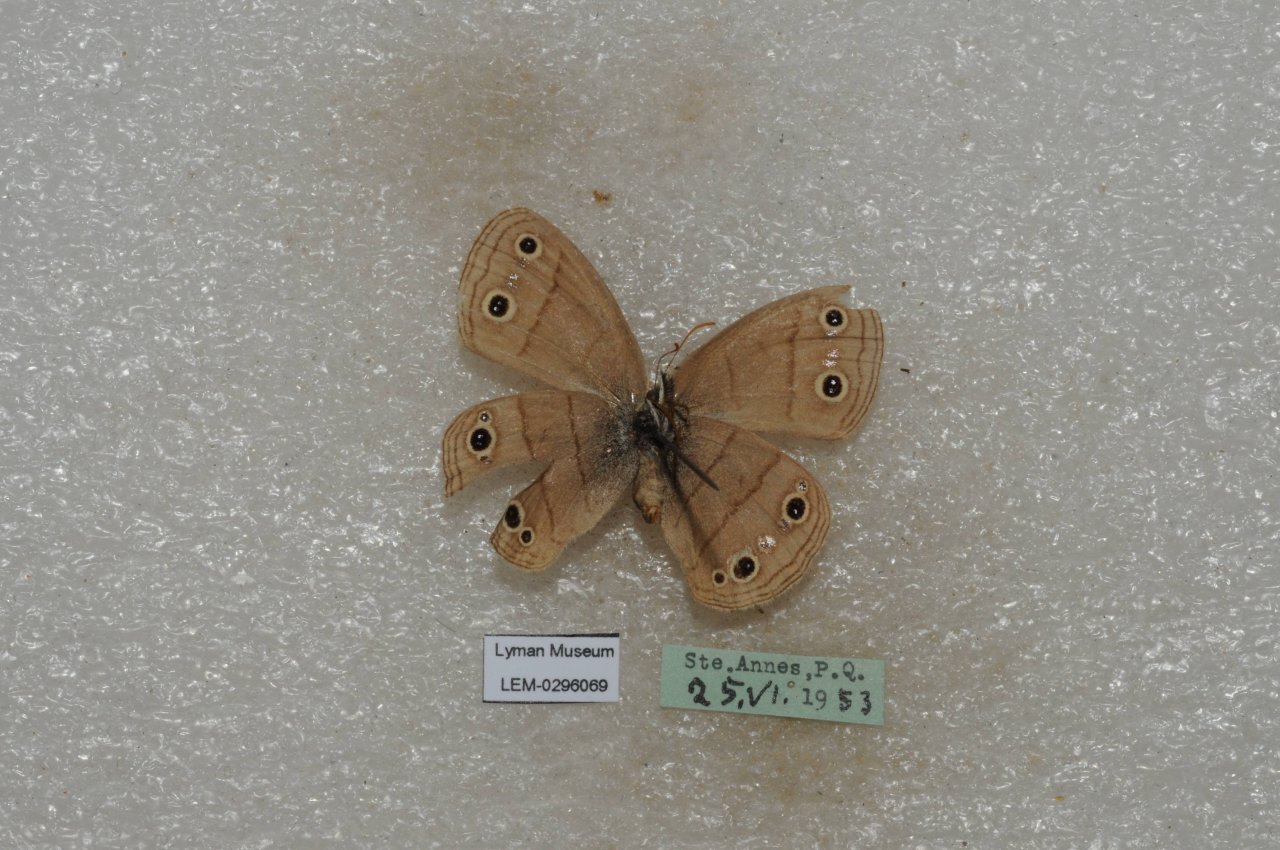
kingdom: Animalia
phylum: Arthropoda
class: Insecta
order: Lepidoptera
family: Nymphalidae
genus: Euptychia
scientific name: Euptychia cymela
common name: Little Wood Satyr
